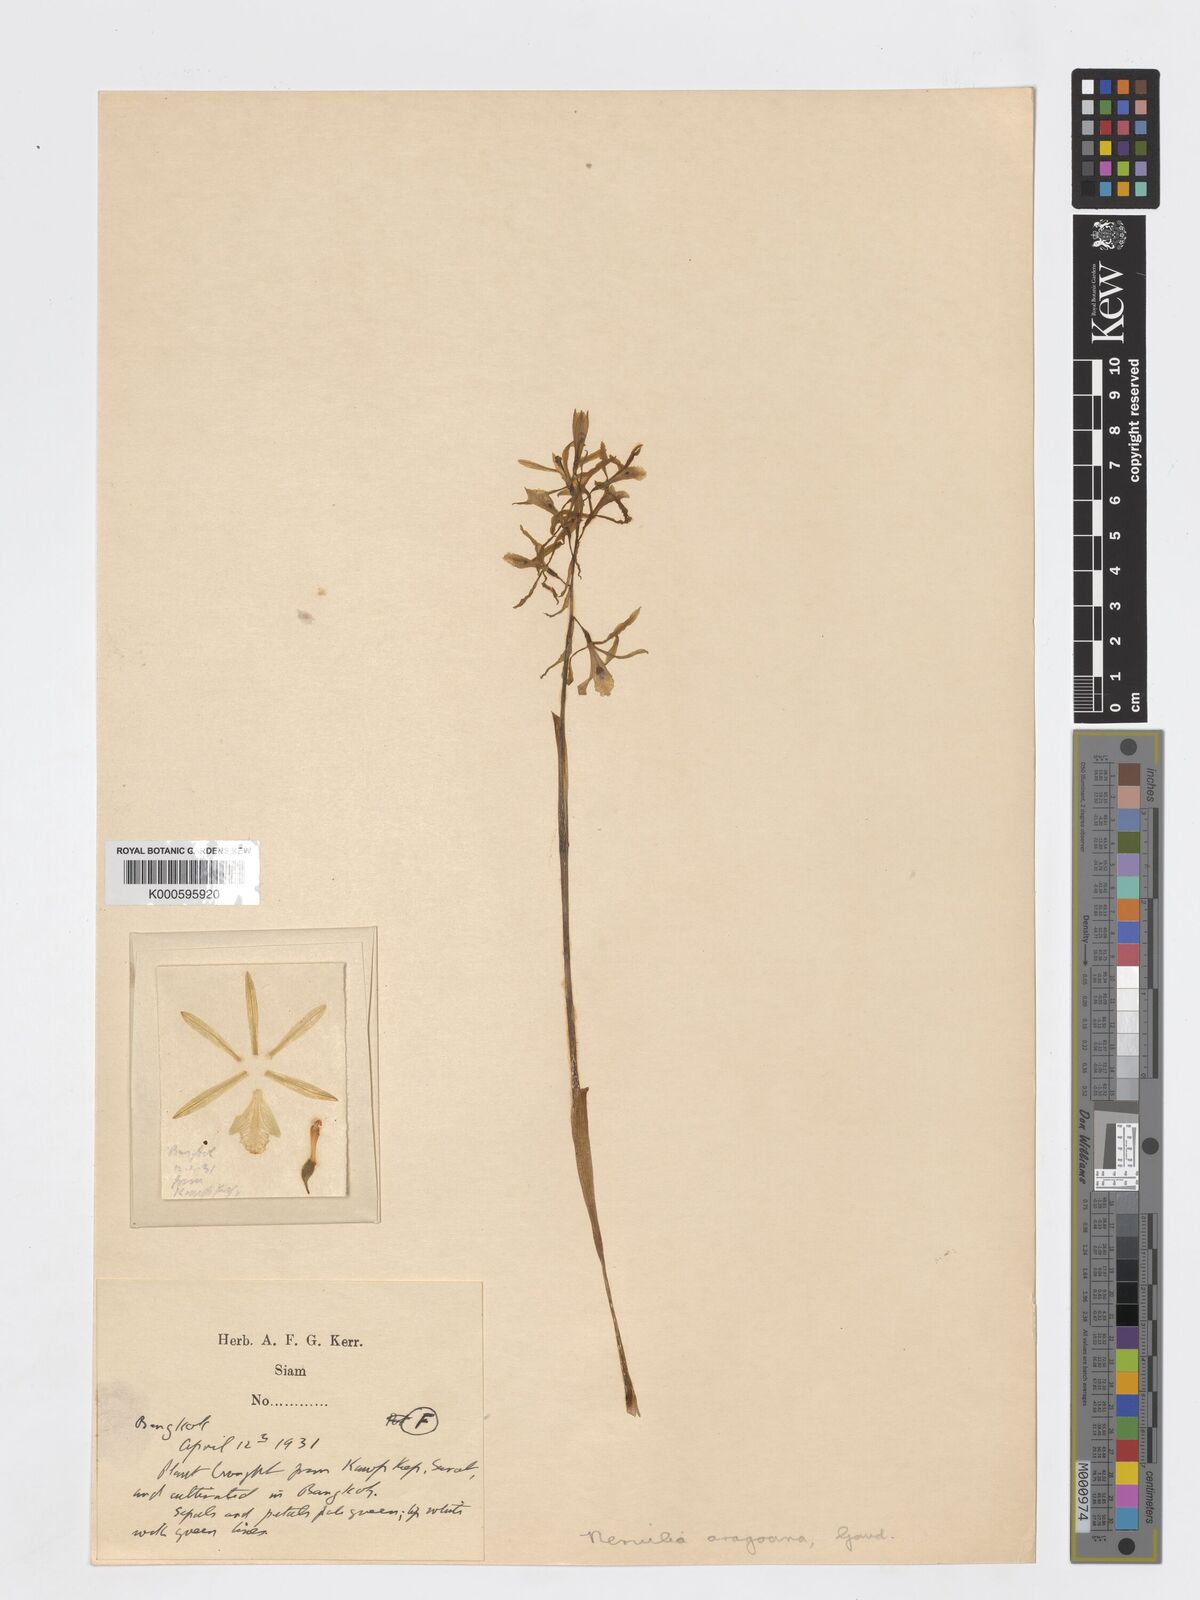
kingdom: Plantae
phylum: Tracheophyta
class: Liliopsida
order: Asparagales
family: Orchidaceae
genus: Nervilia
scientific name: Nervilia concolor
